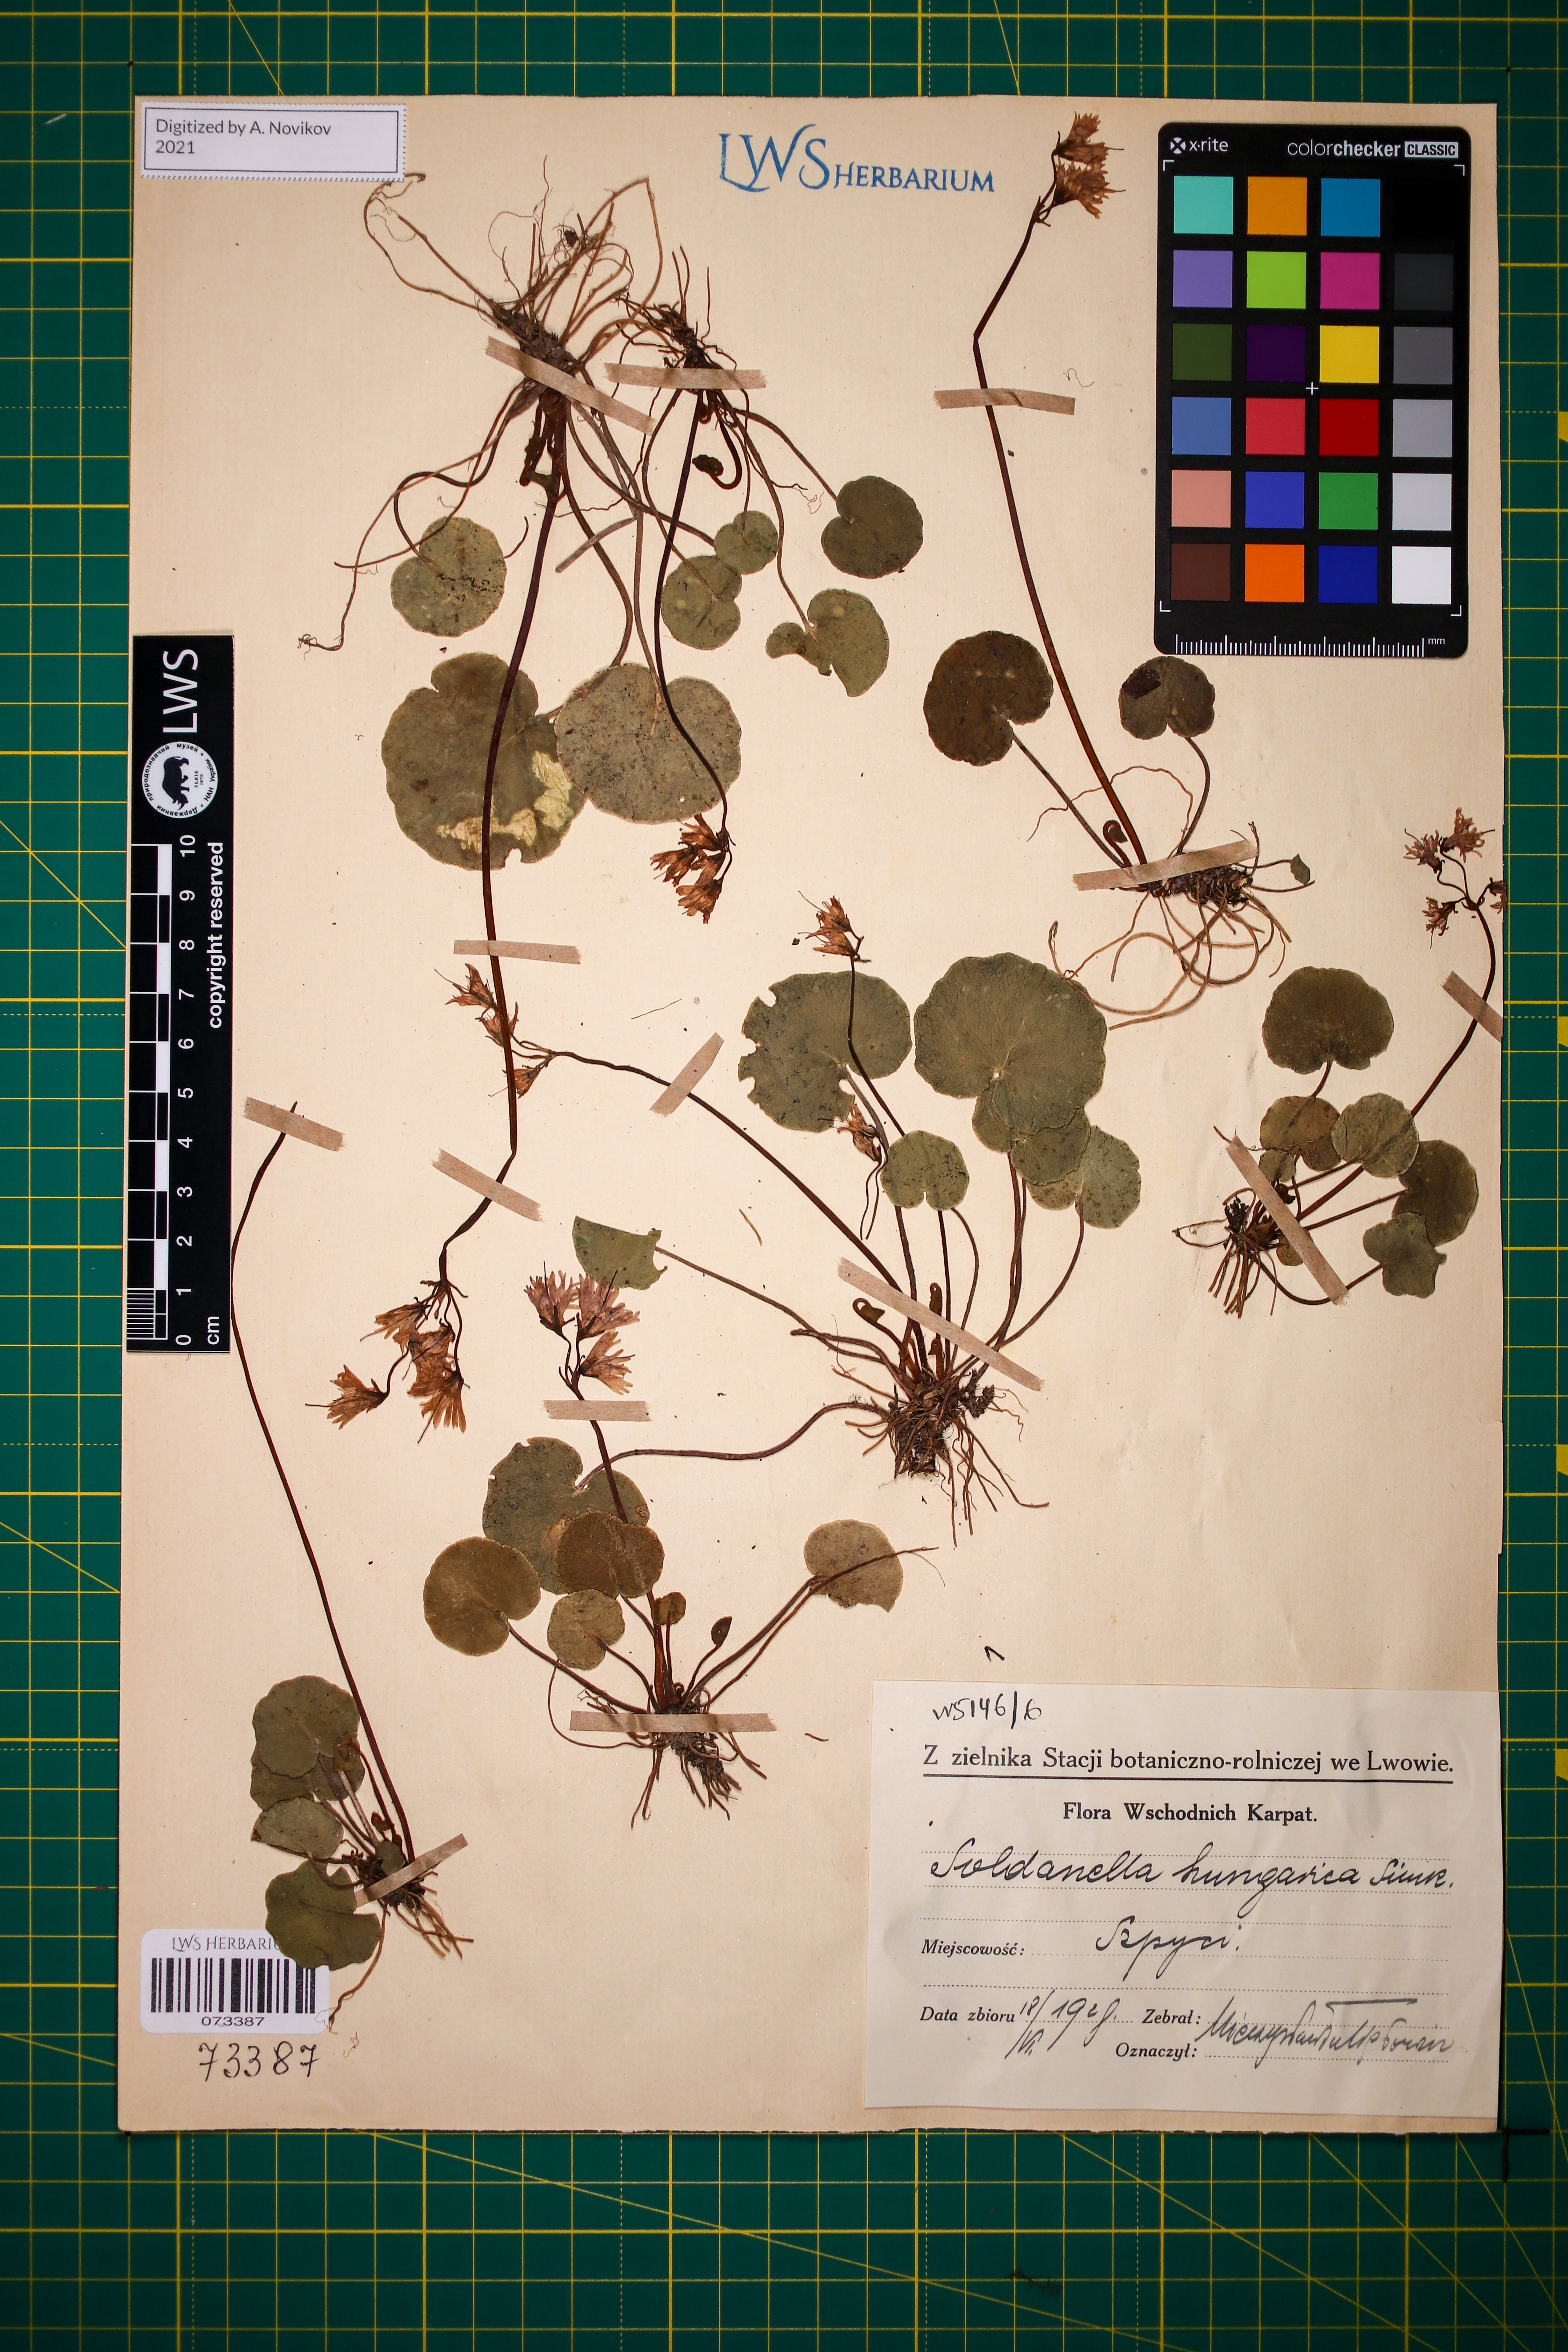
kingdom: Plantae
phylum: Tracheophyta
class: Magnoliopsida
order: Ericales
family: Primulaceae
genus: Soldanella
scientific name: Soldanella hungarica
